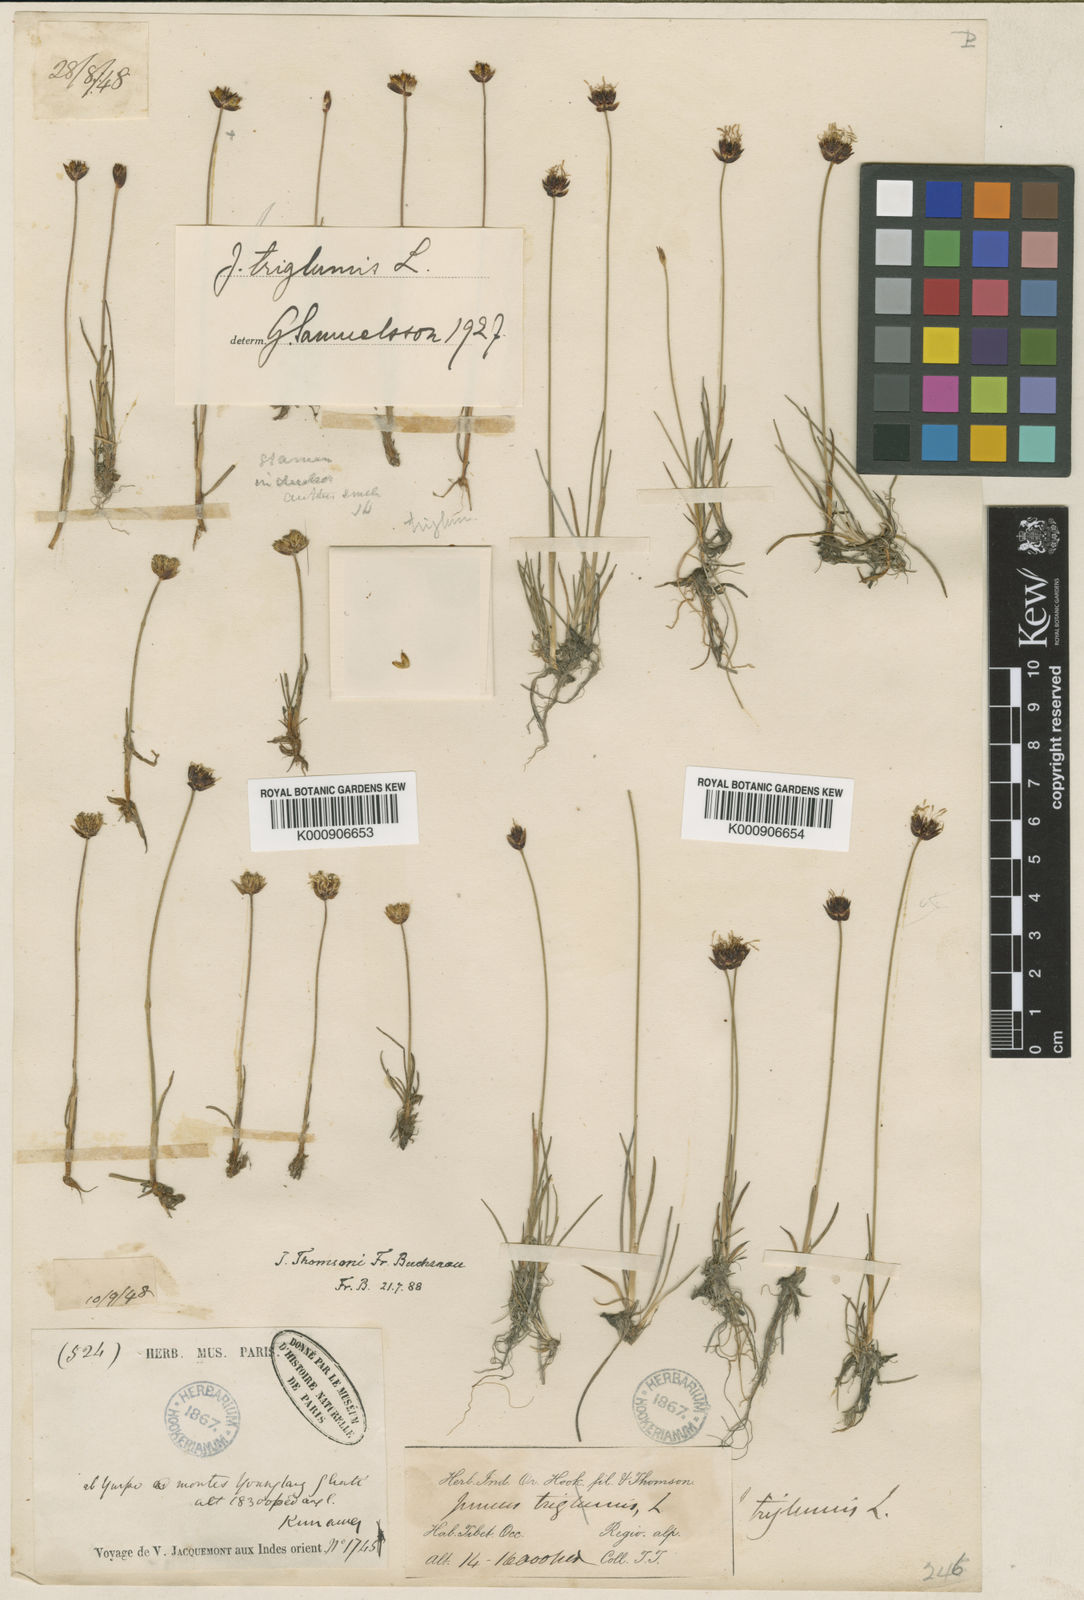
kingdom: Plantae
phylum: Tracheophyta
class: Liliopsida
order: Poales
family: Juncaceae
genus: Juncus
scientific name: Juncus thomsonii
